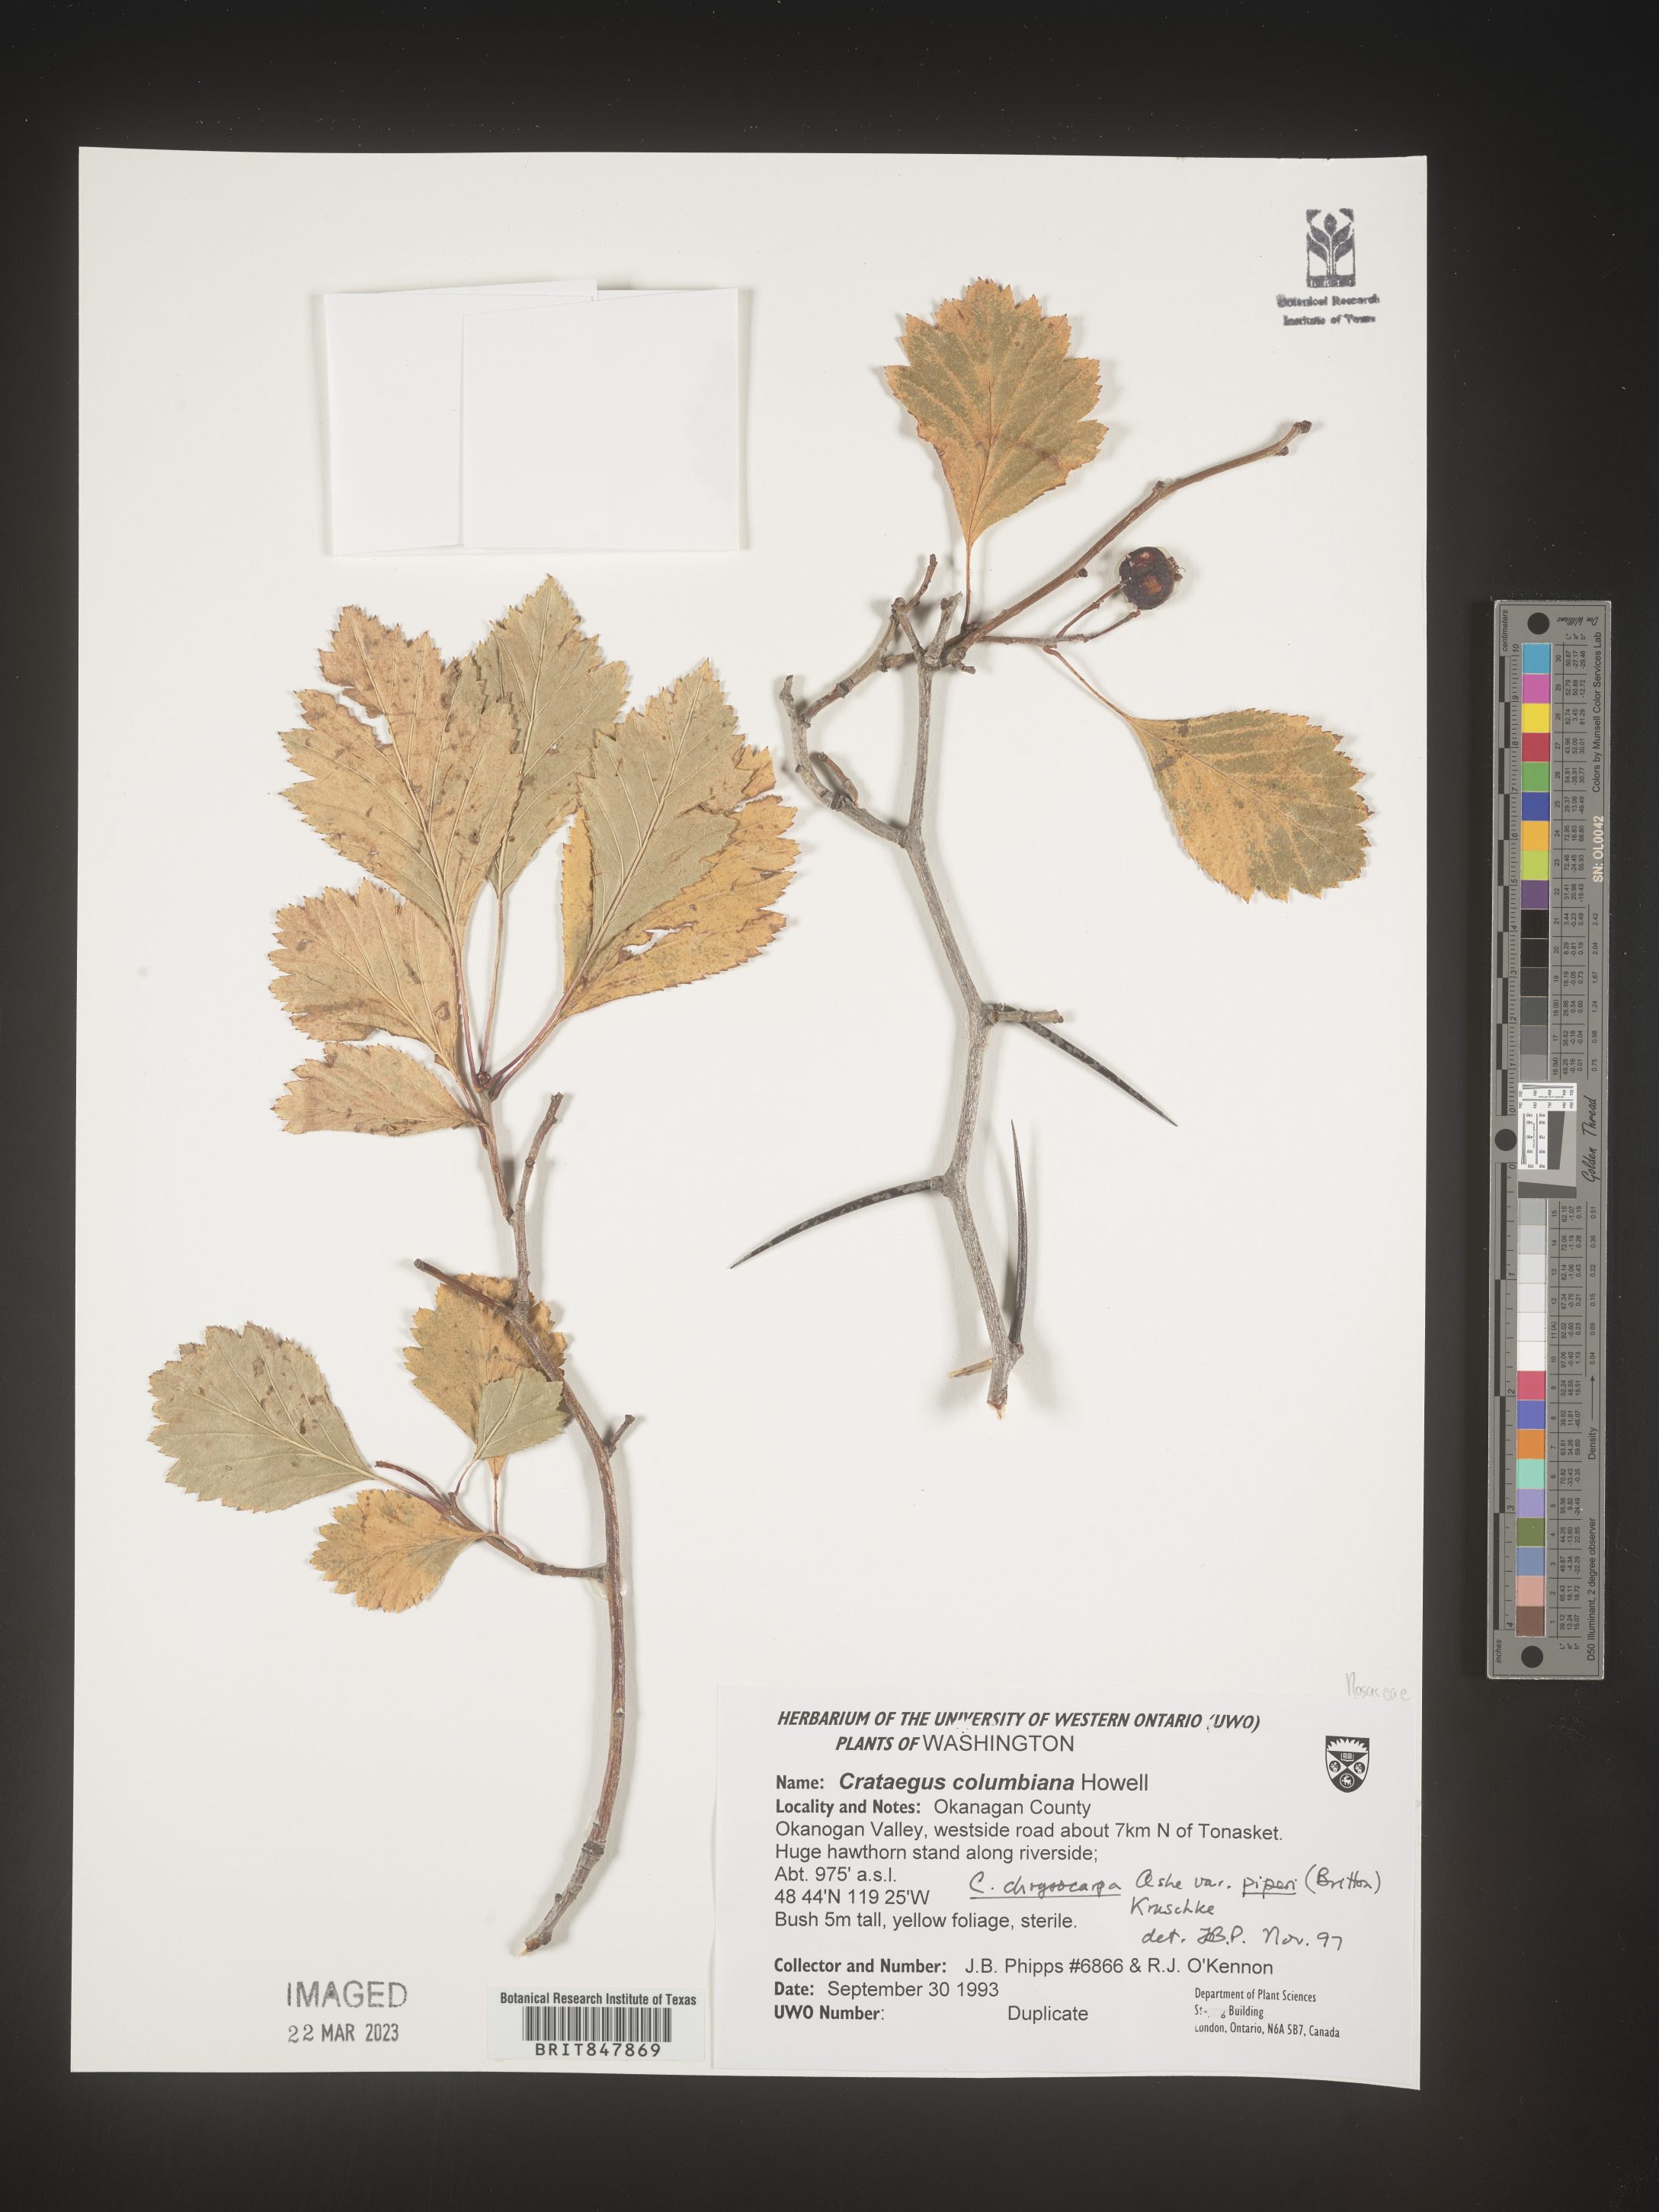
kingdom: Plantae
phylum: Tracheophyta
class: Magnoliopsida
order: Rosales
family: Rosaceae
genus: Crataegus
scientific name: Crataegus columbiana
